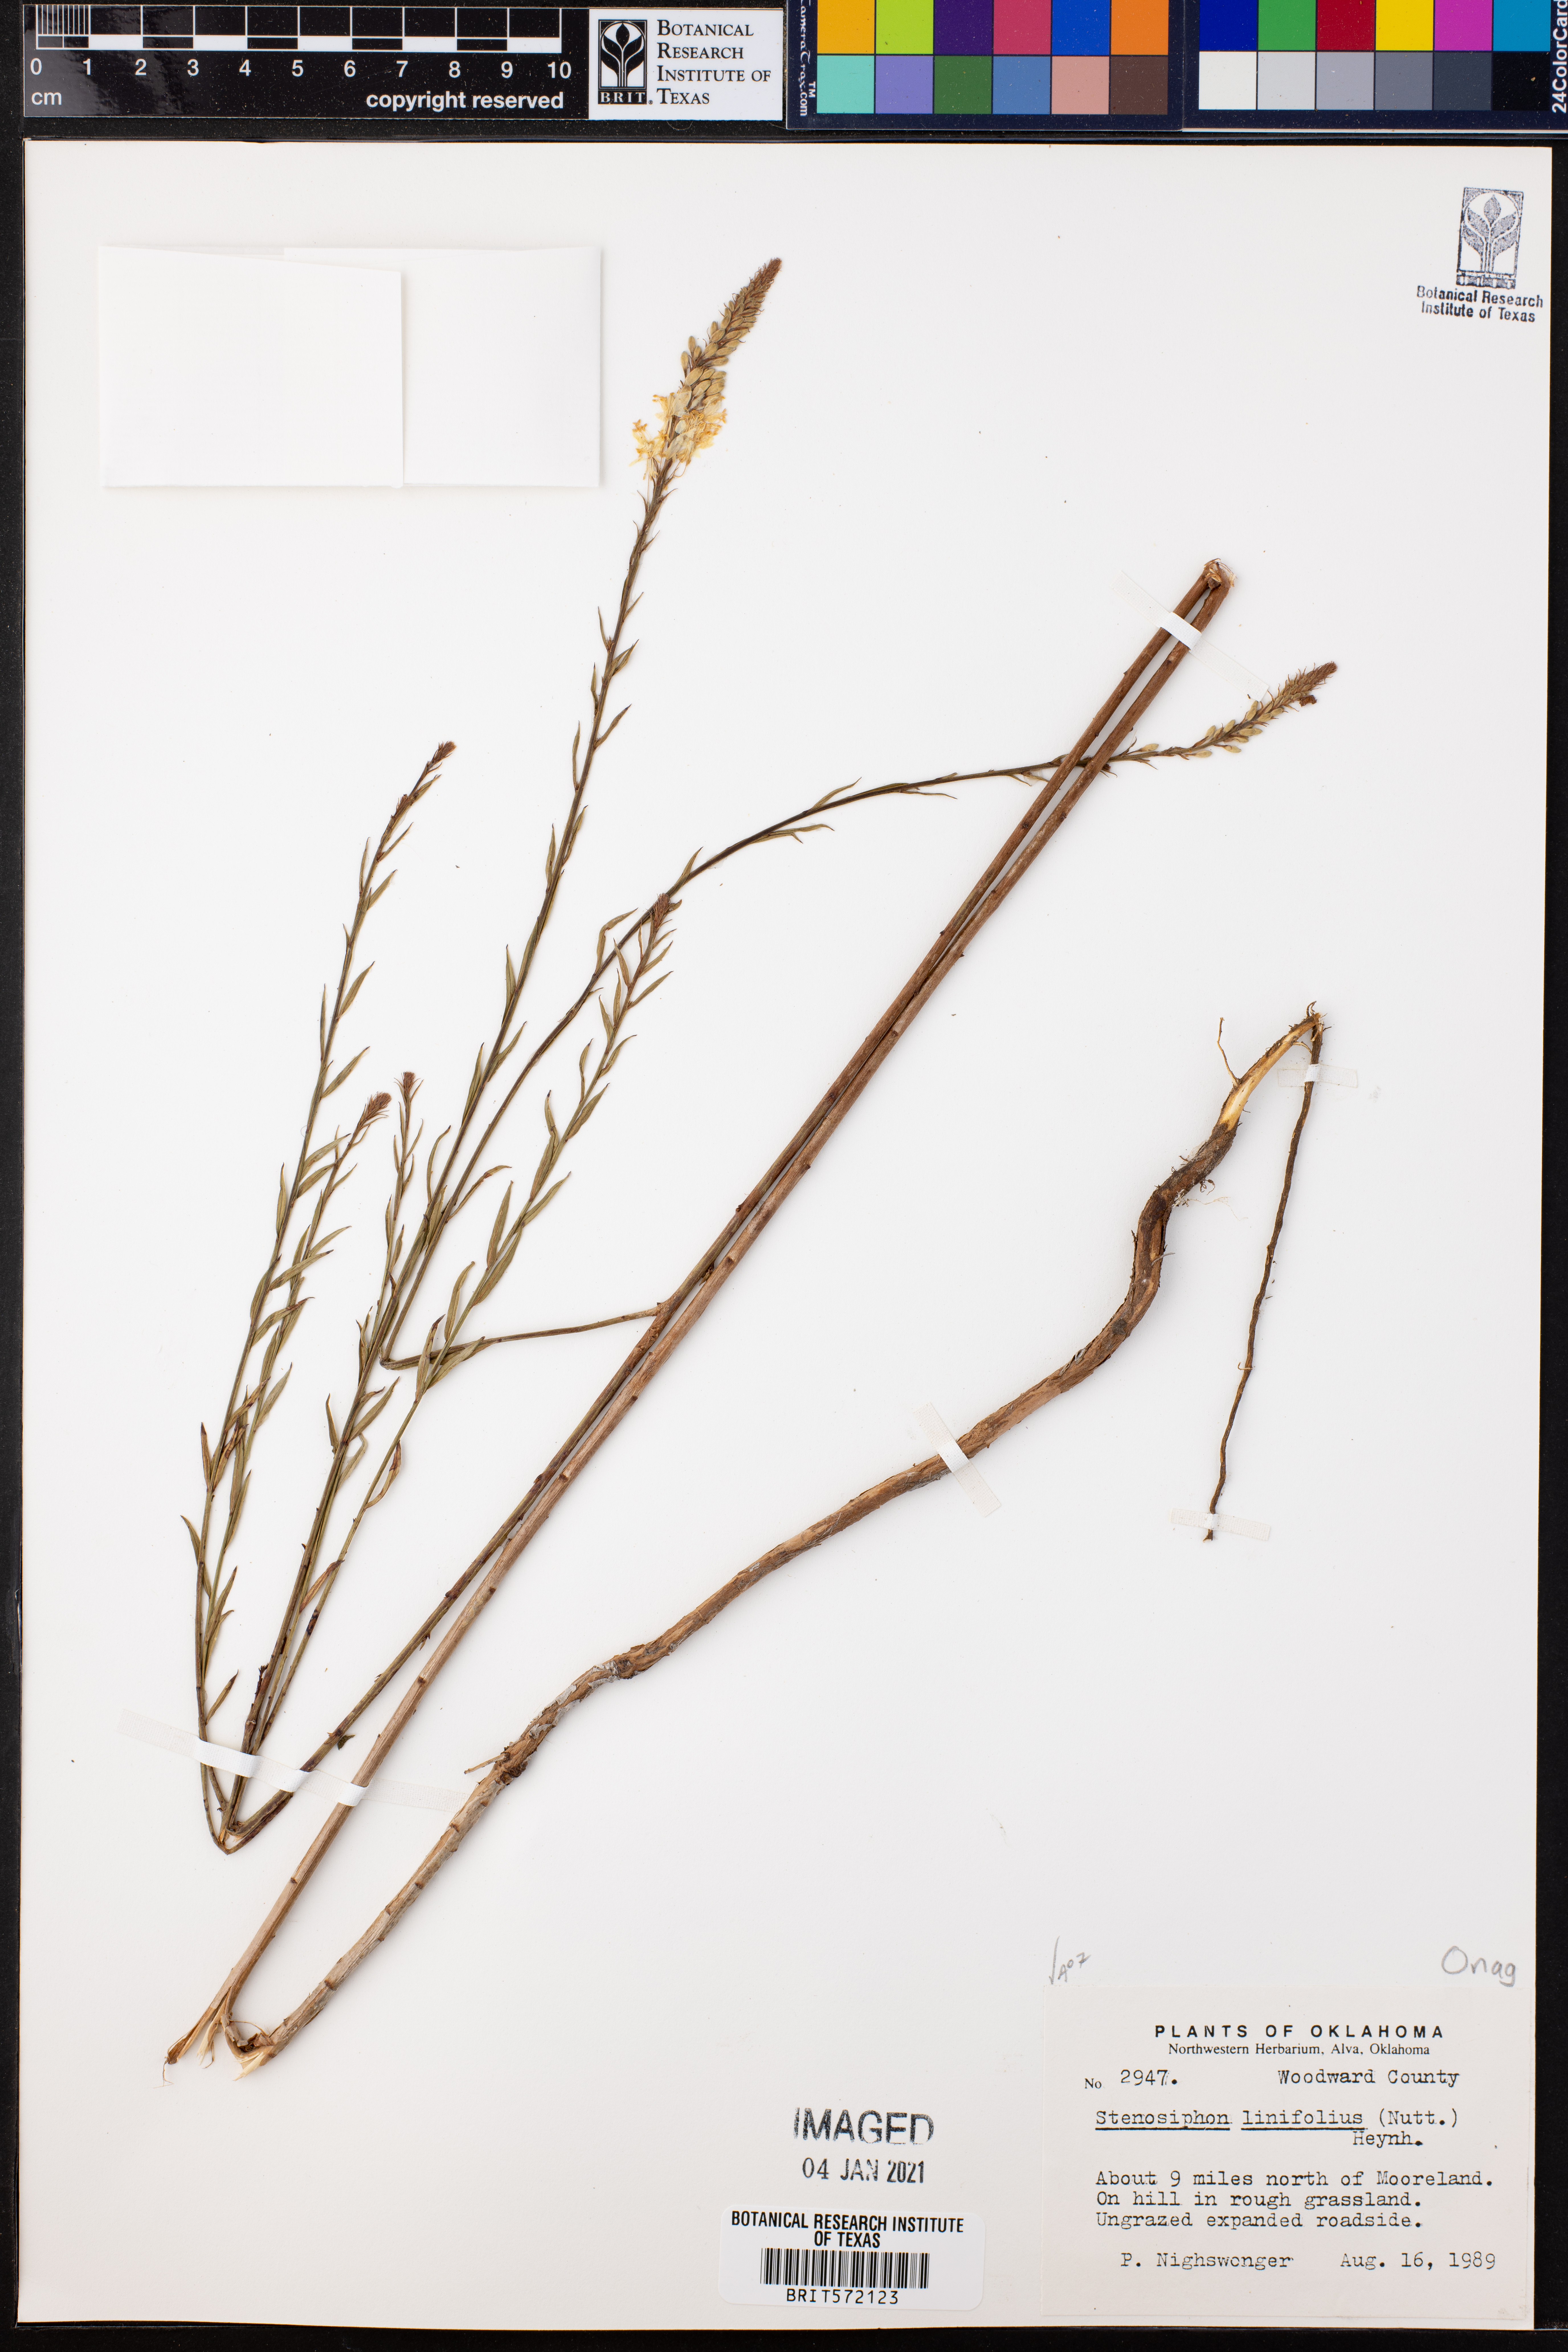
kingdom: Plantae
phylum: Tracheophyta
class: Magnoliopsida
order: Myrtales
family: Onagraceae
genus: Oenothera
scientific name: Oenothera glaucifolia
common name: False gaura
